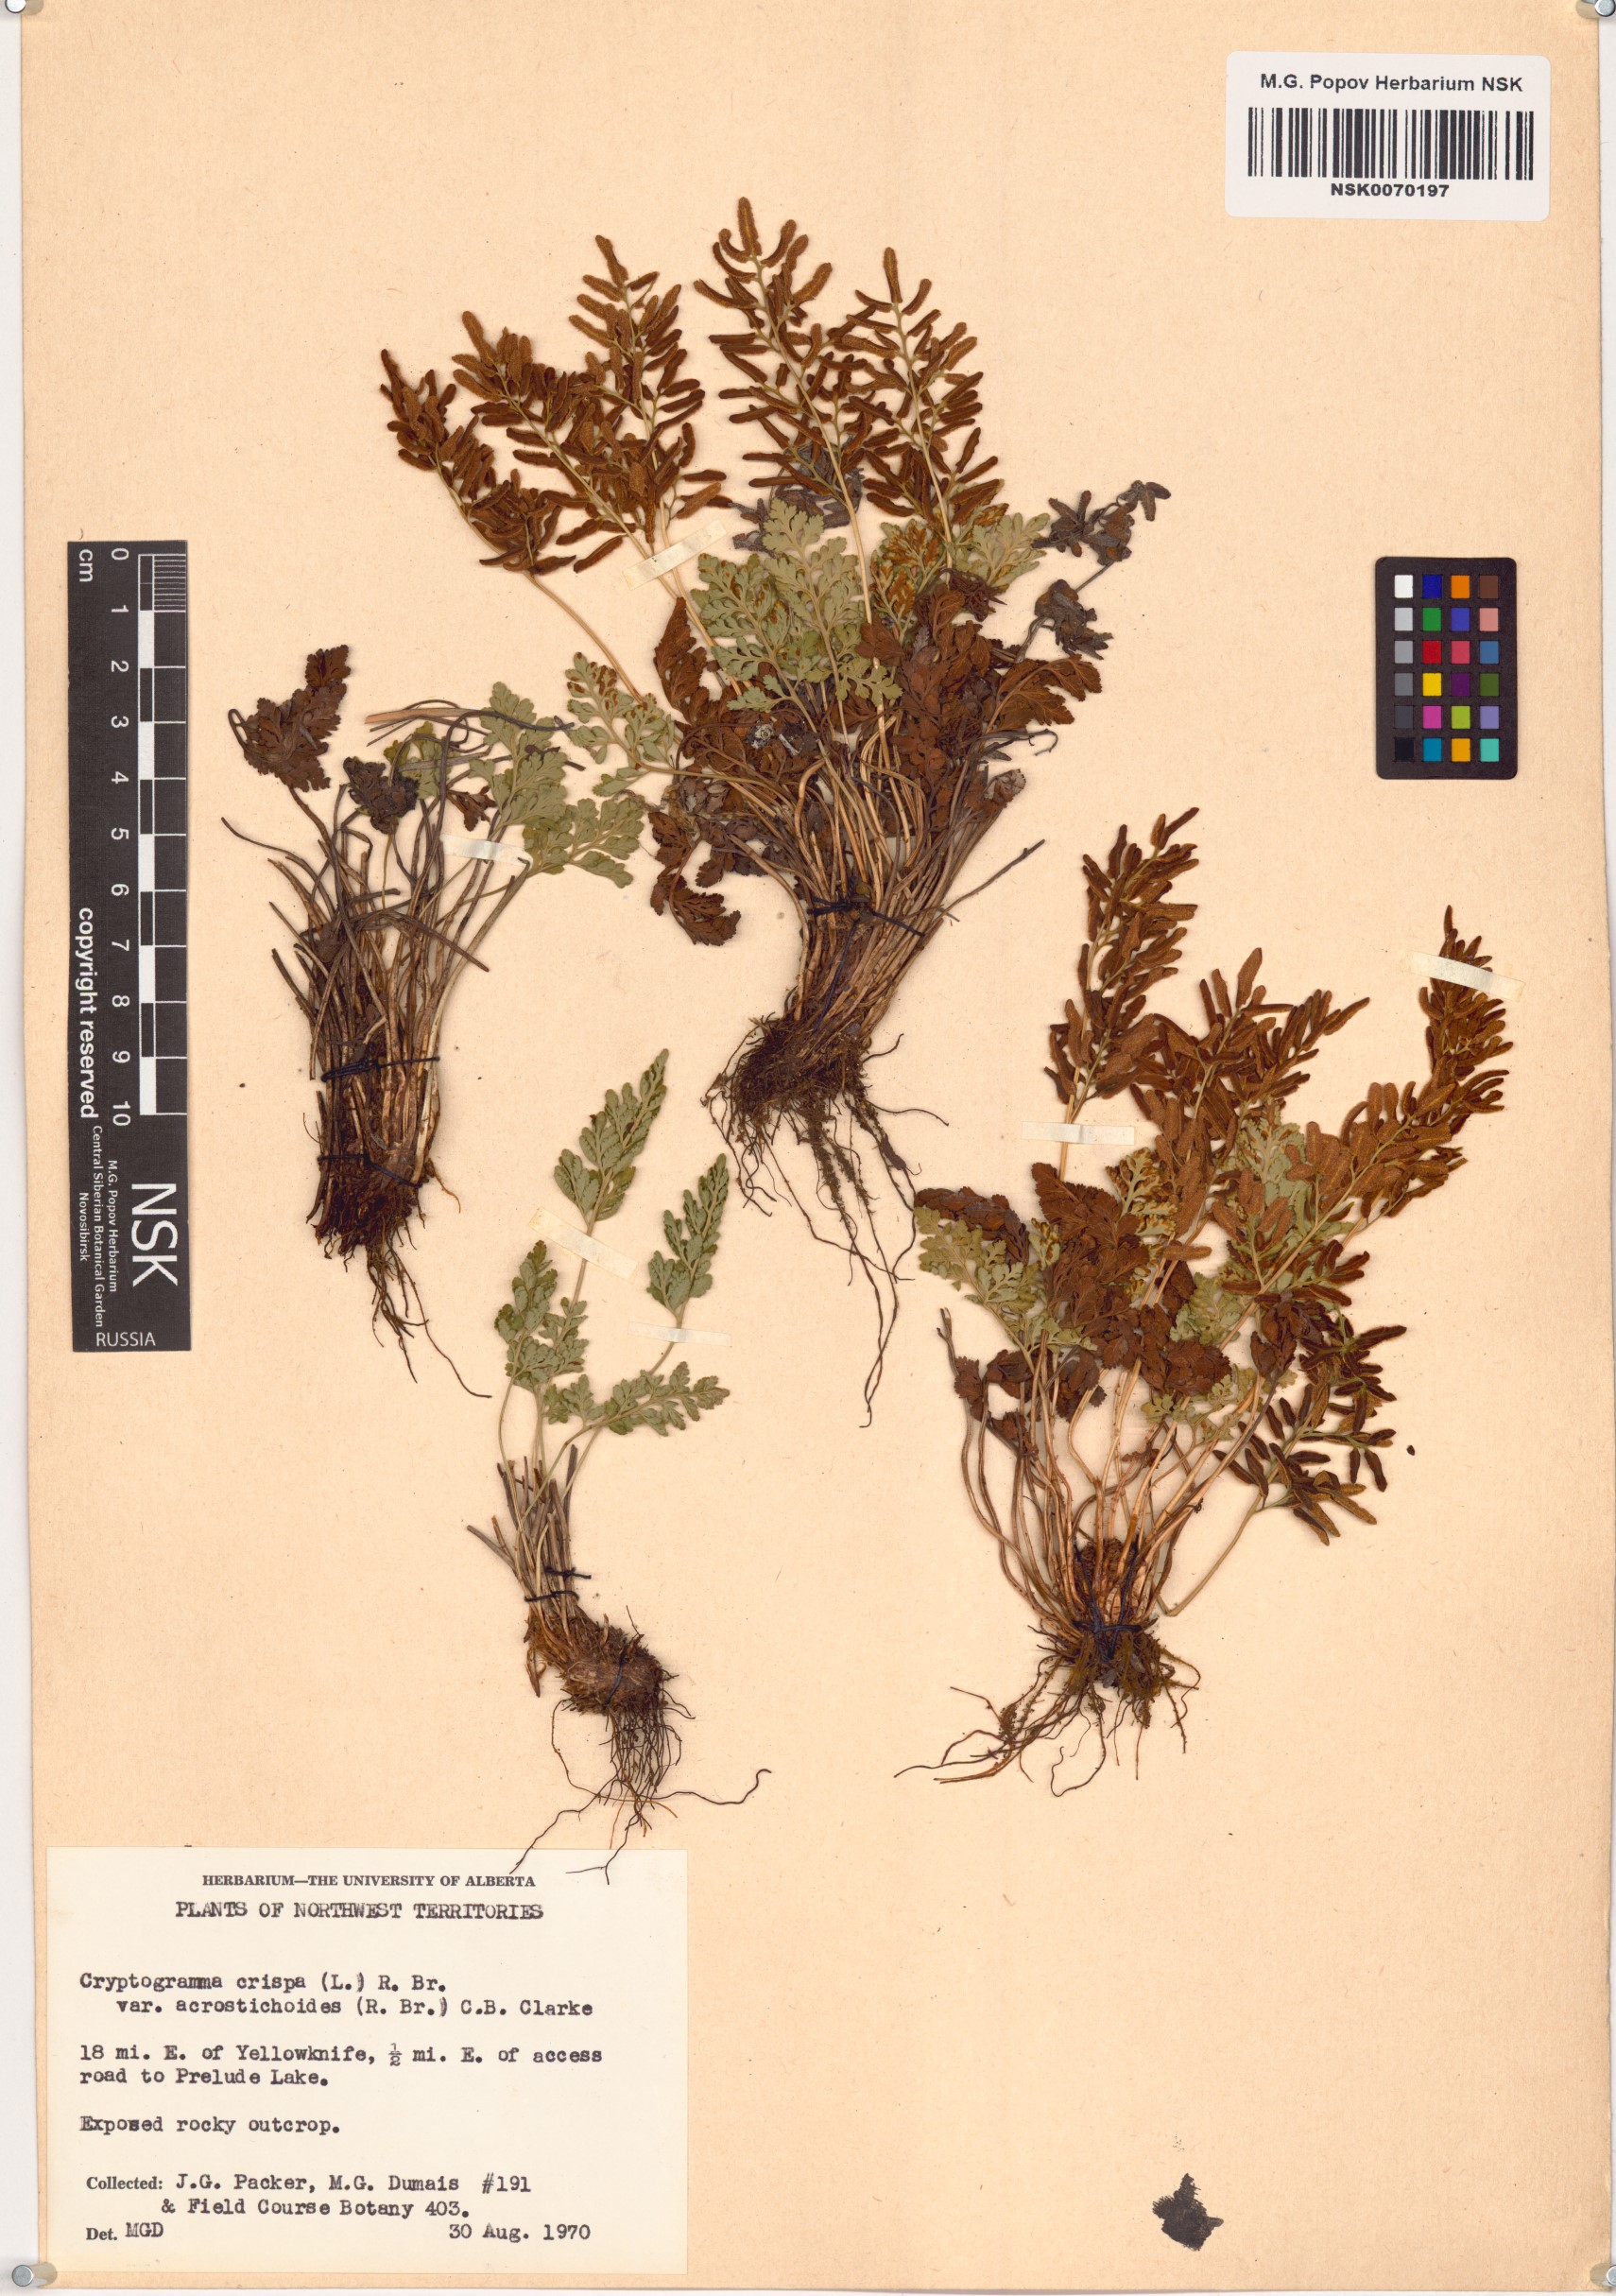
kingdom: Plantae
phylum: Tracheophyta
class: Polypodiopsida
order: Polypodiales
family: Pteridaceae
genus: Cryptogramma
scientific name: Cryptogramma acrostichoides
